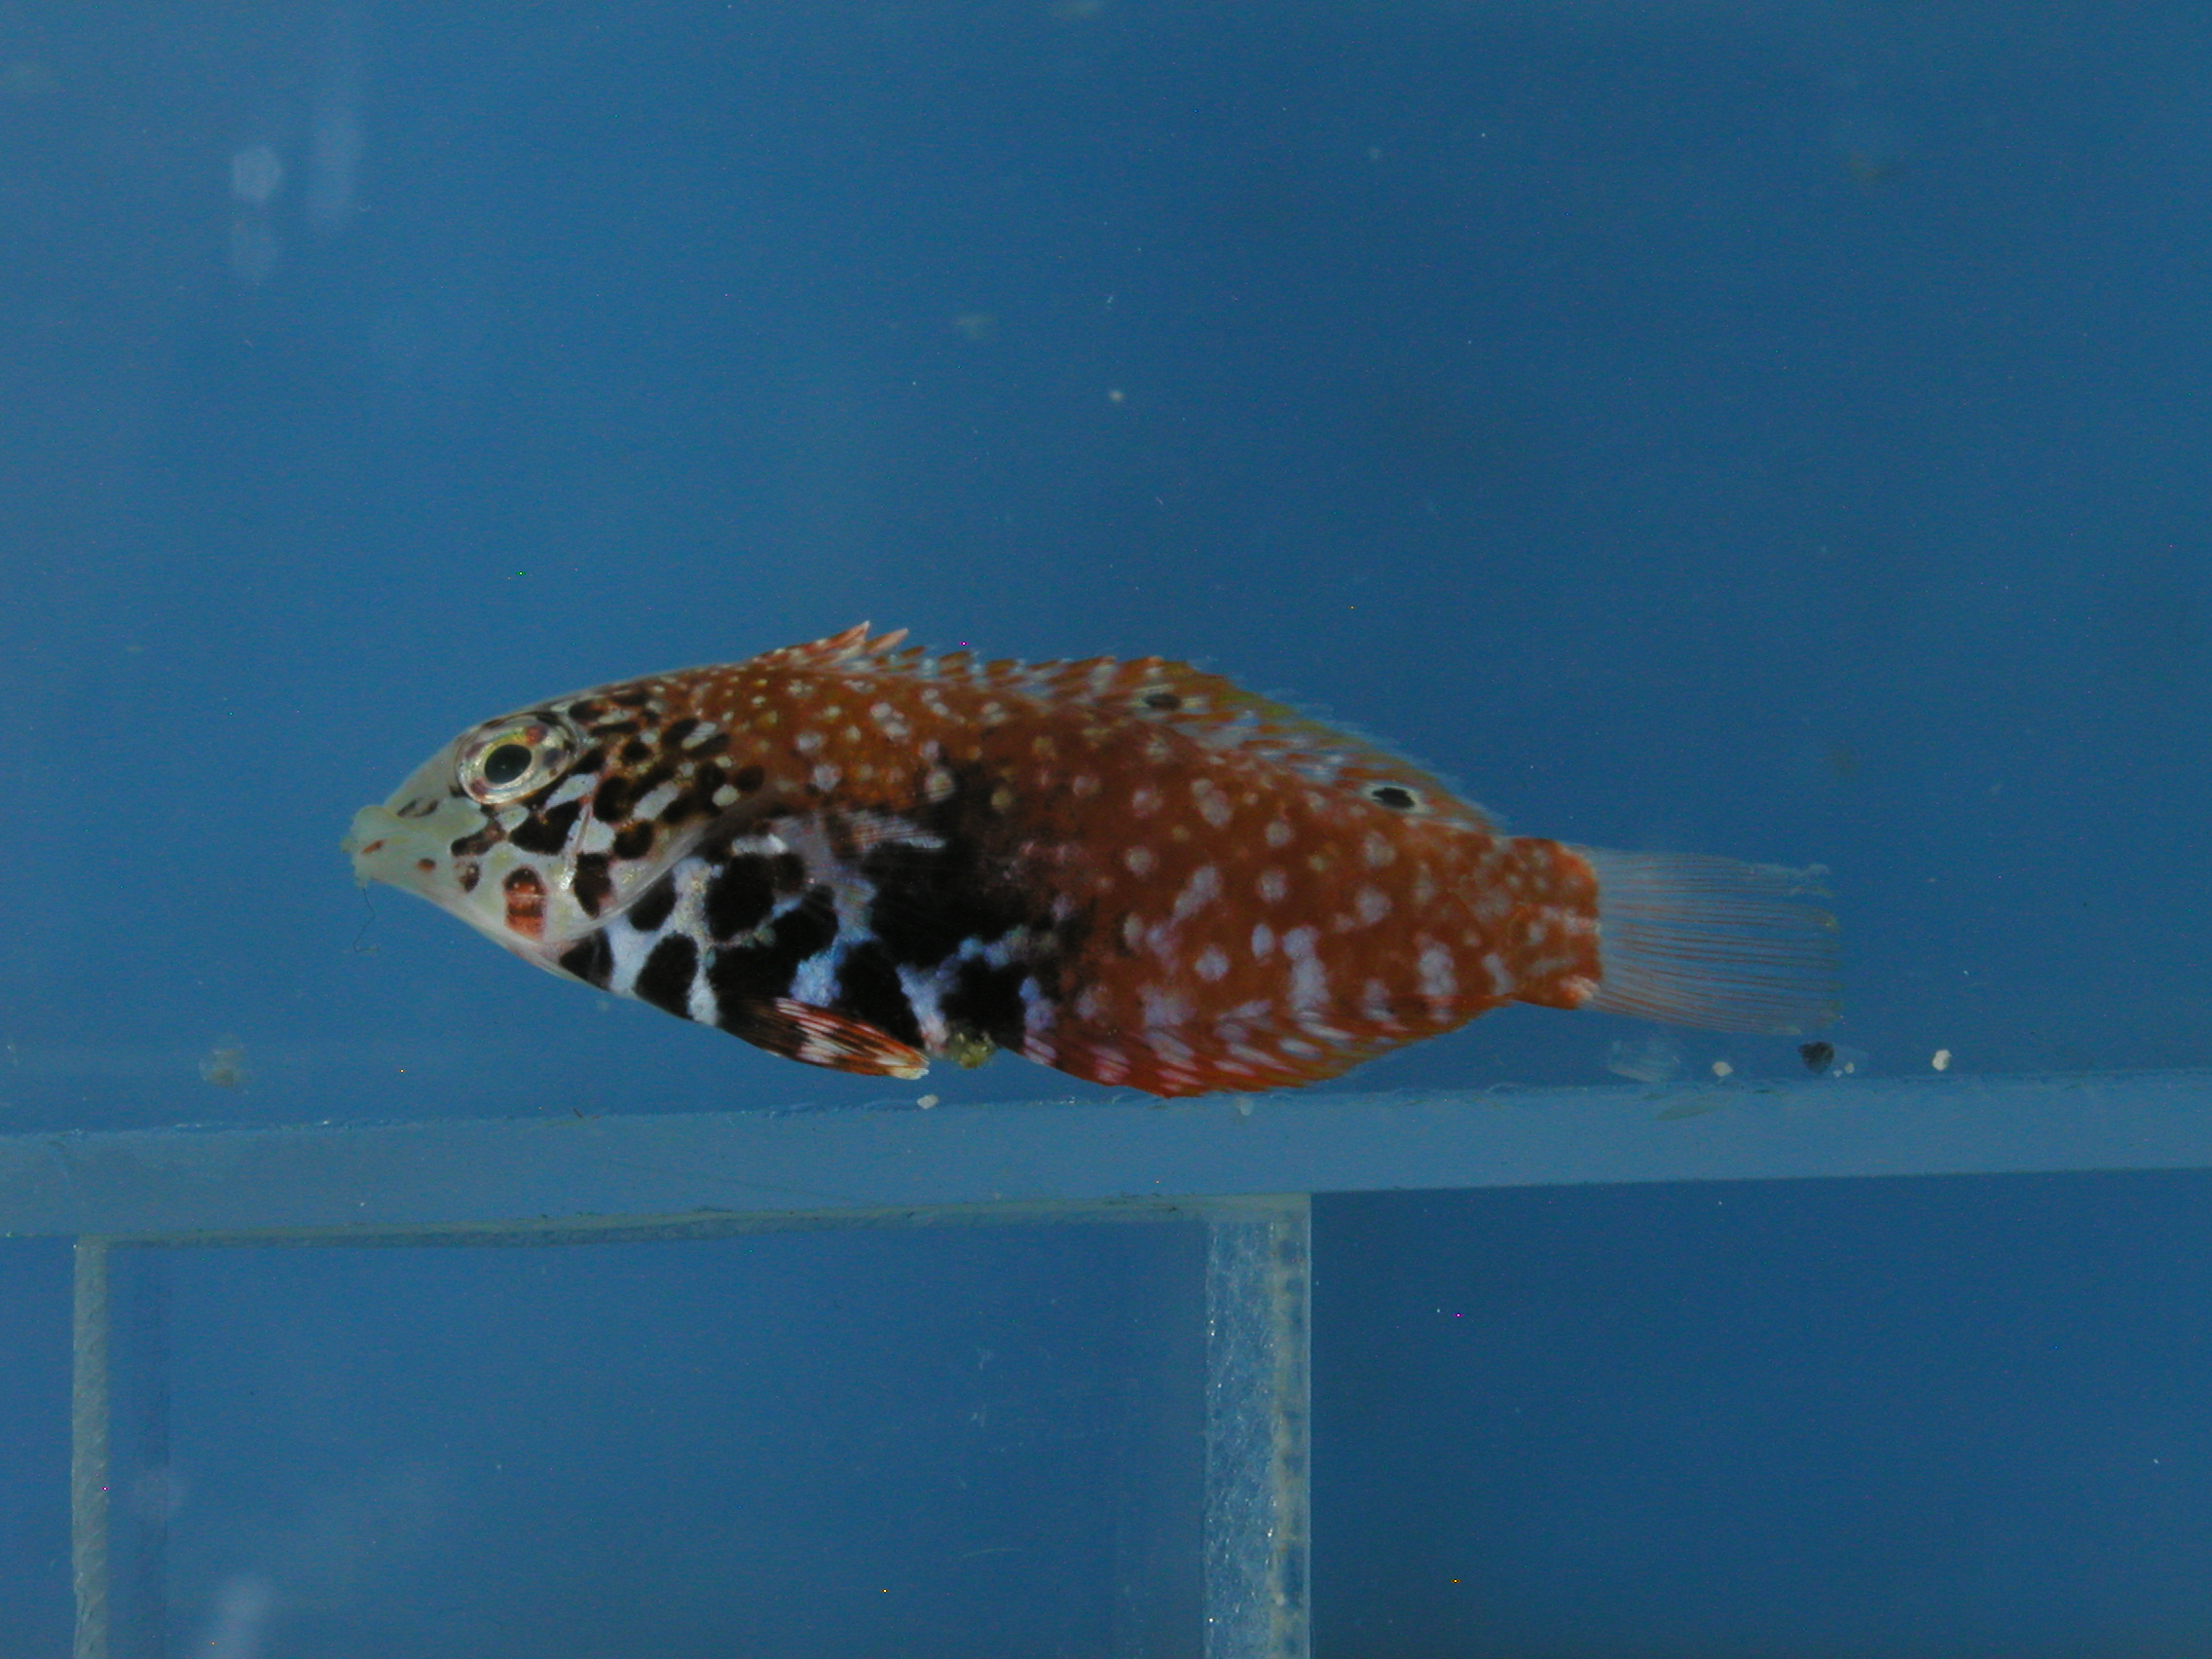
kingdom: Animalia
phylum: Chordata
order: Perciformes
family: Labridae
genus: Macropharyngodon
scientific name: Macropharyngodon bipartitus
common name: Divided wrasse
